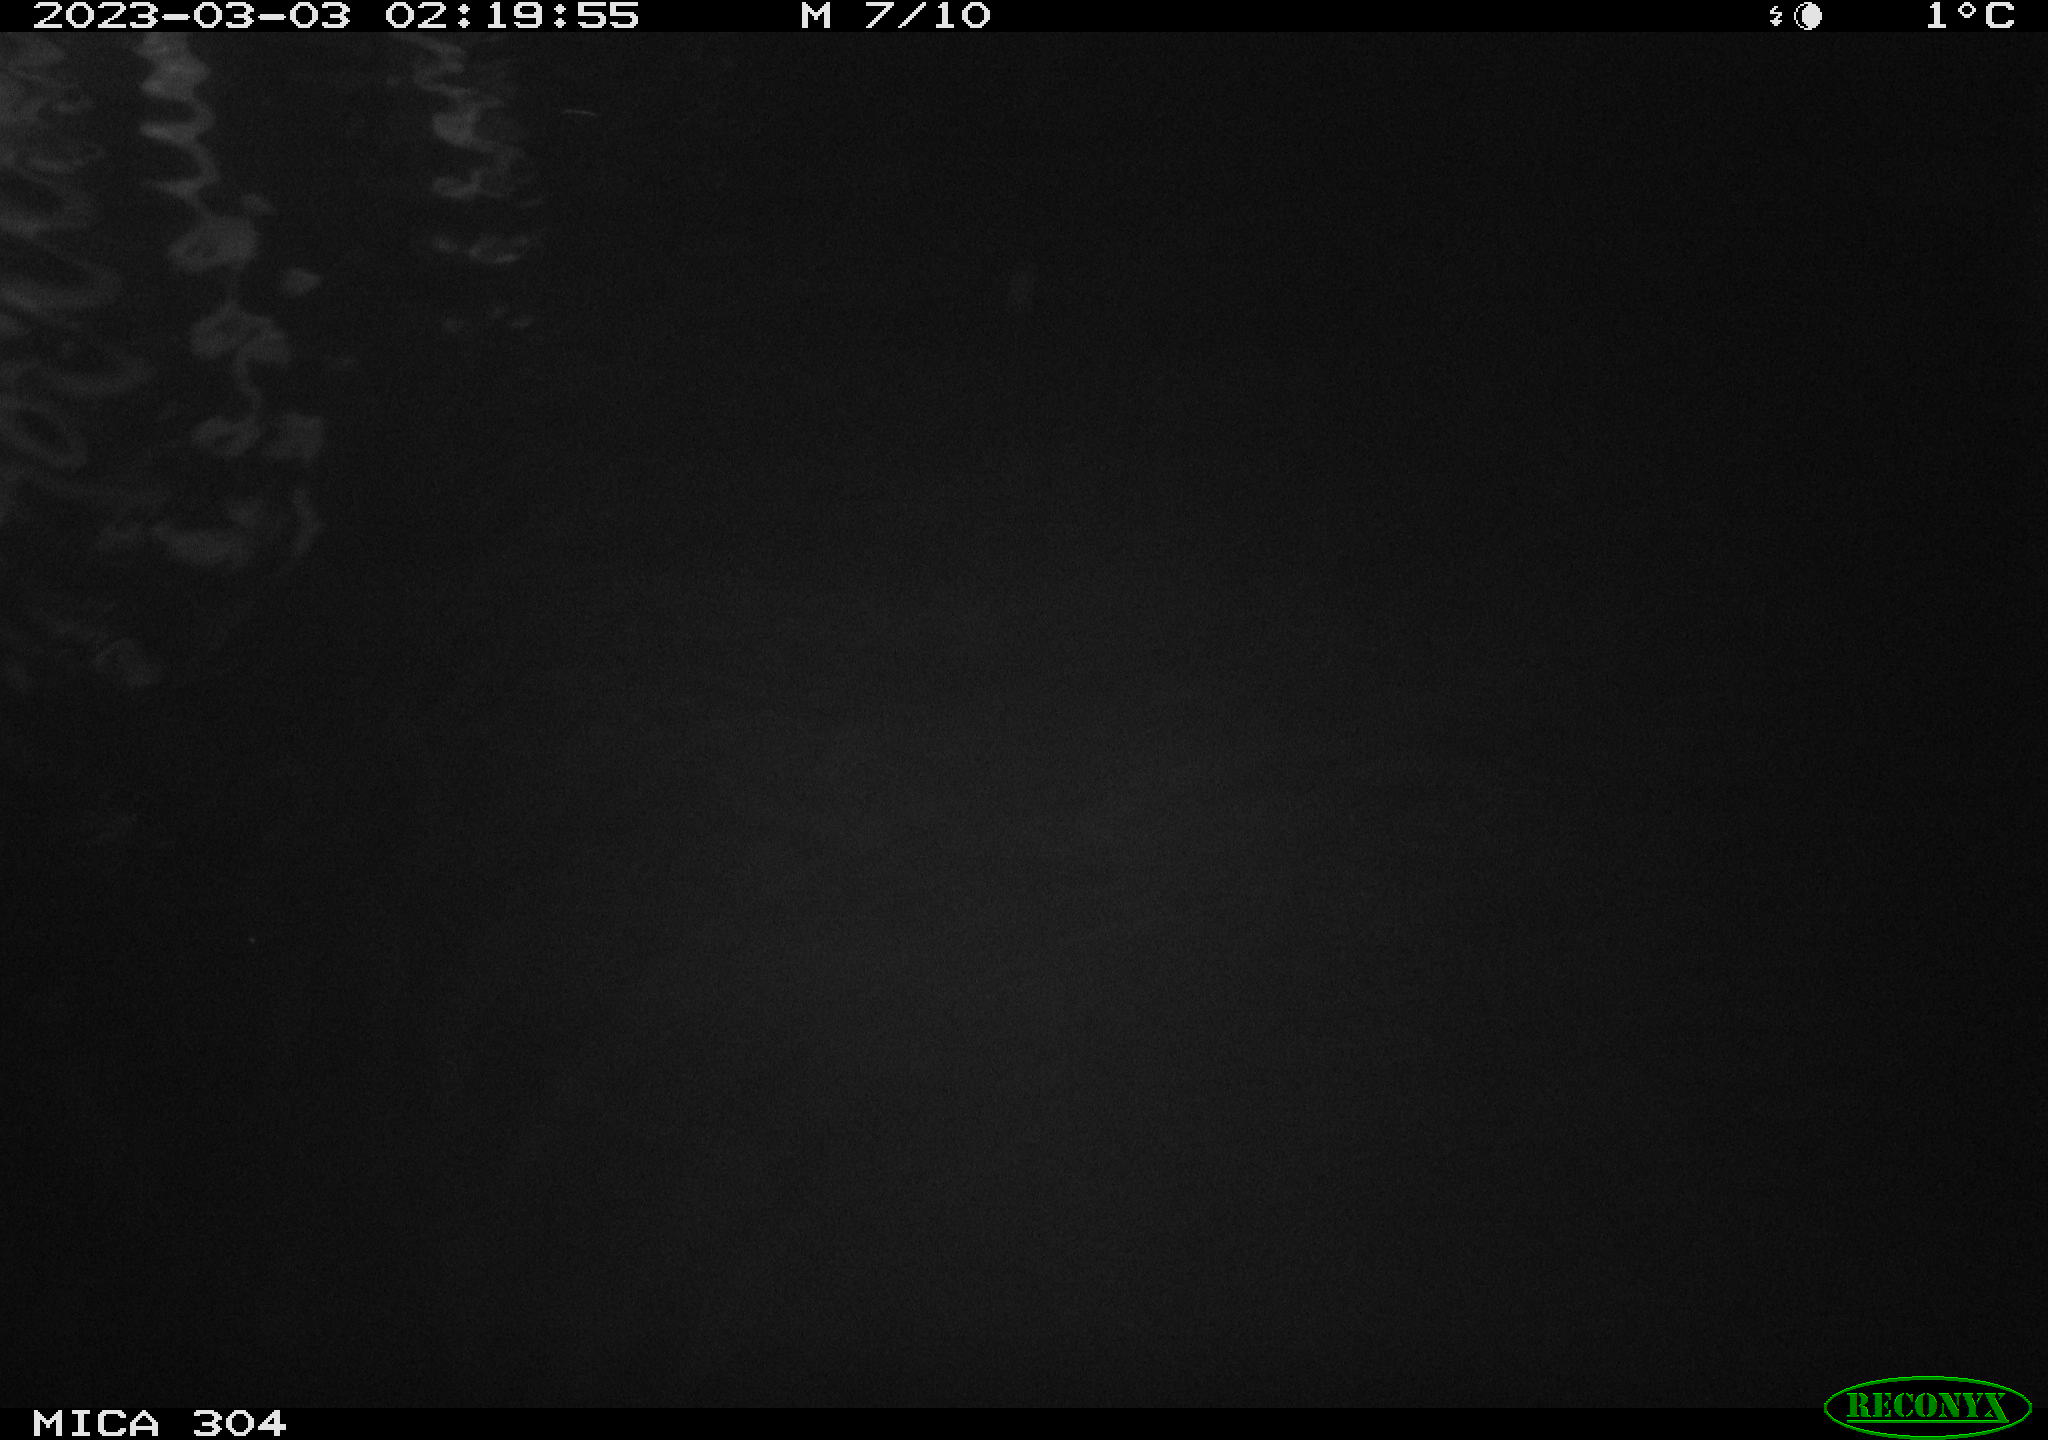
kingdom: Animalia
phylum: Chordata
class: Mammalia
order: Rodentia
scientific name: Rodentia
